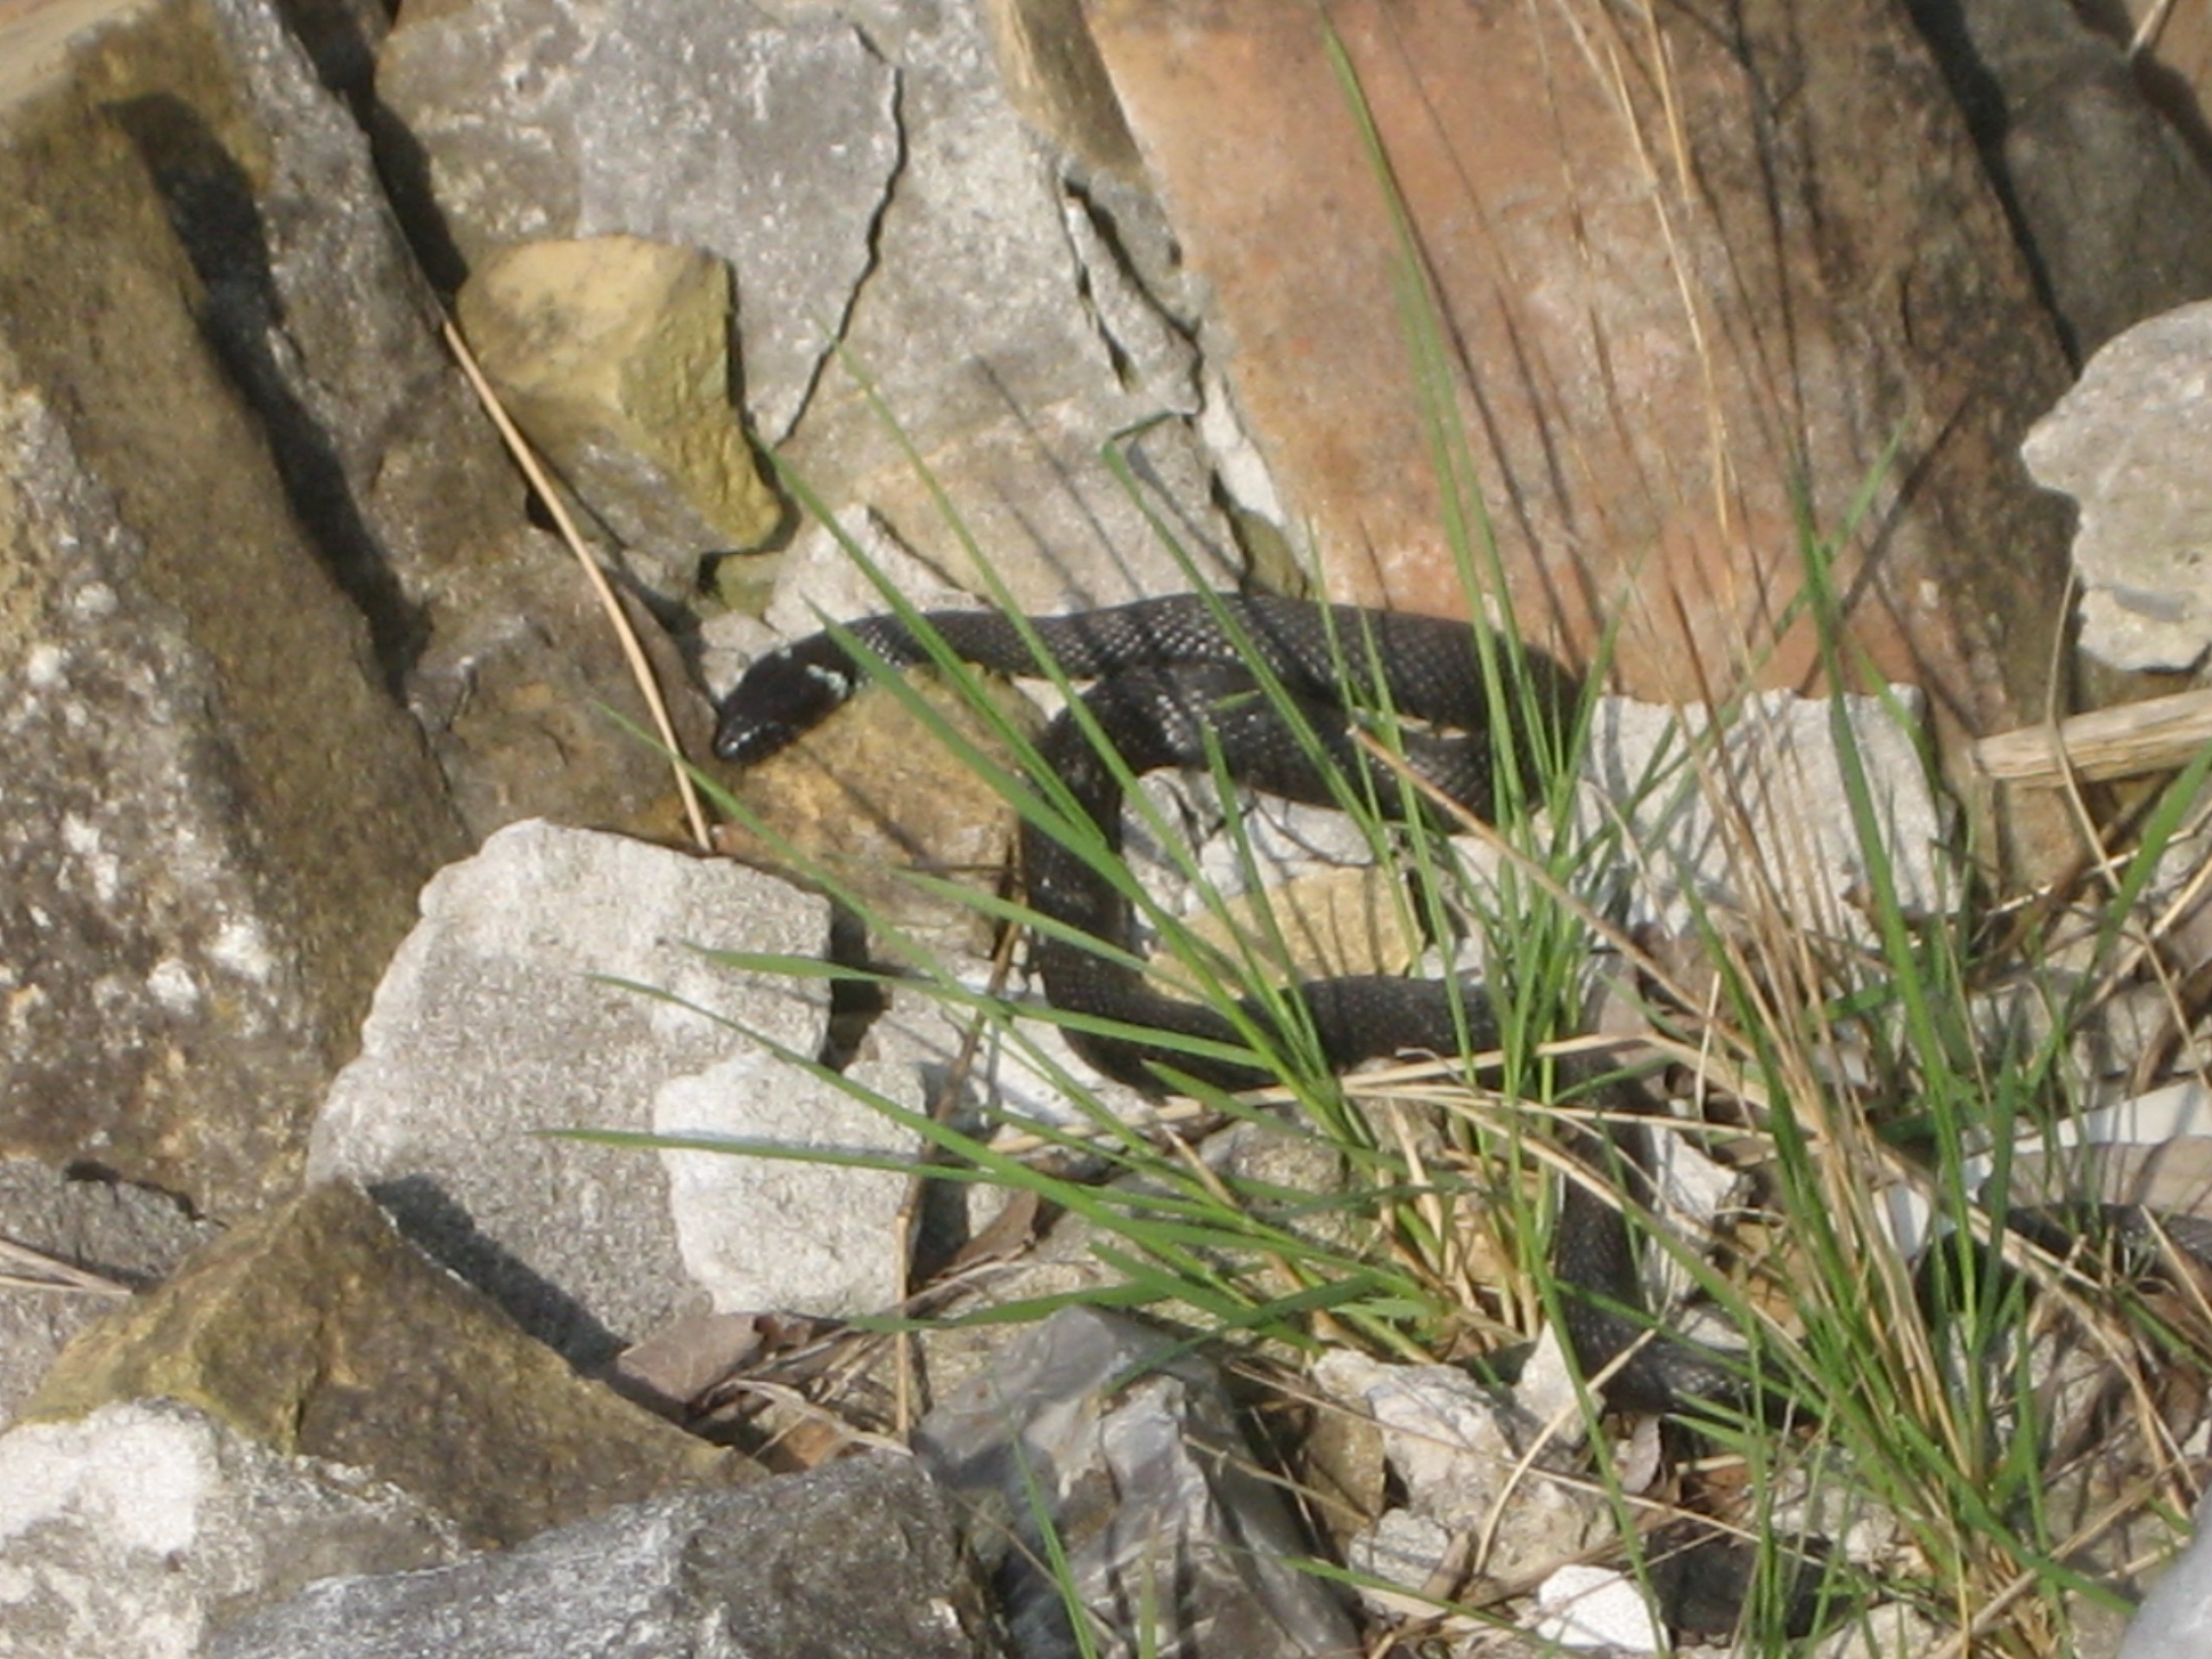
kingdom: Animalia
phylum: Chordata
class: Squamata
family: Colubridae
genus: Natrix
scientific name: Natrix natrix
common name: Snog
